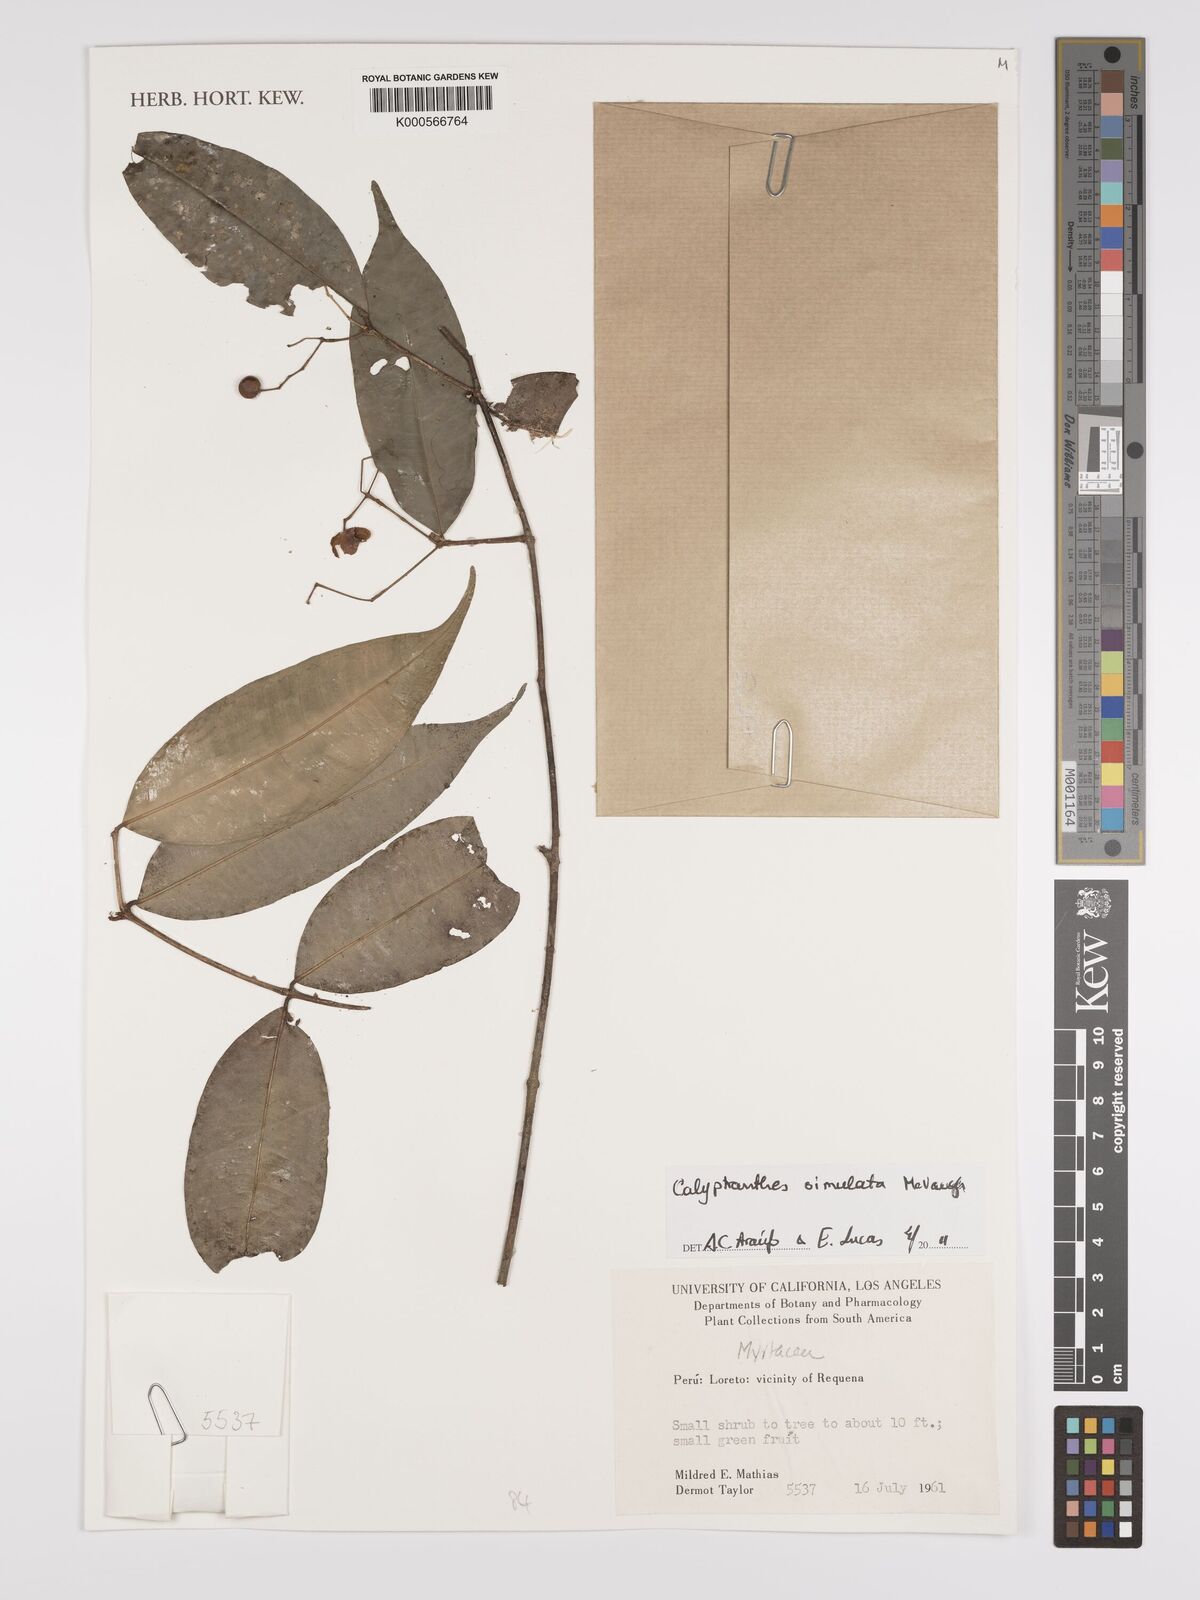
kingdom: Plantae
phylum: Tracheophyta
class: Magnoliopsida
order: Myrtales
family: Myrtaceae
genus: Myrcia
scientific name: Myrcia simulata
